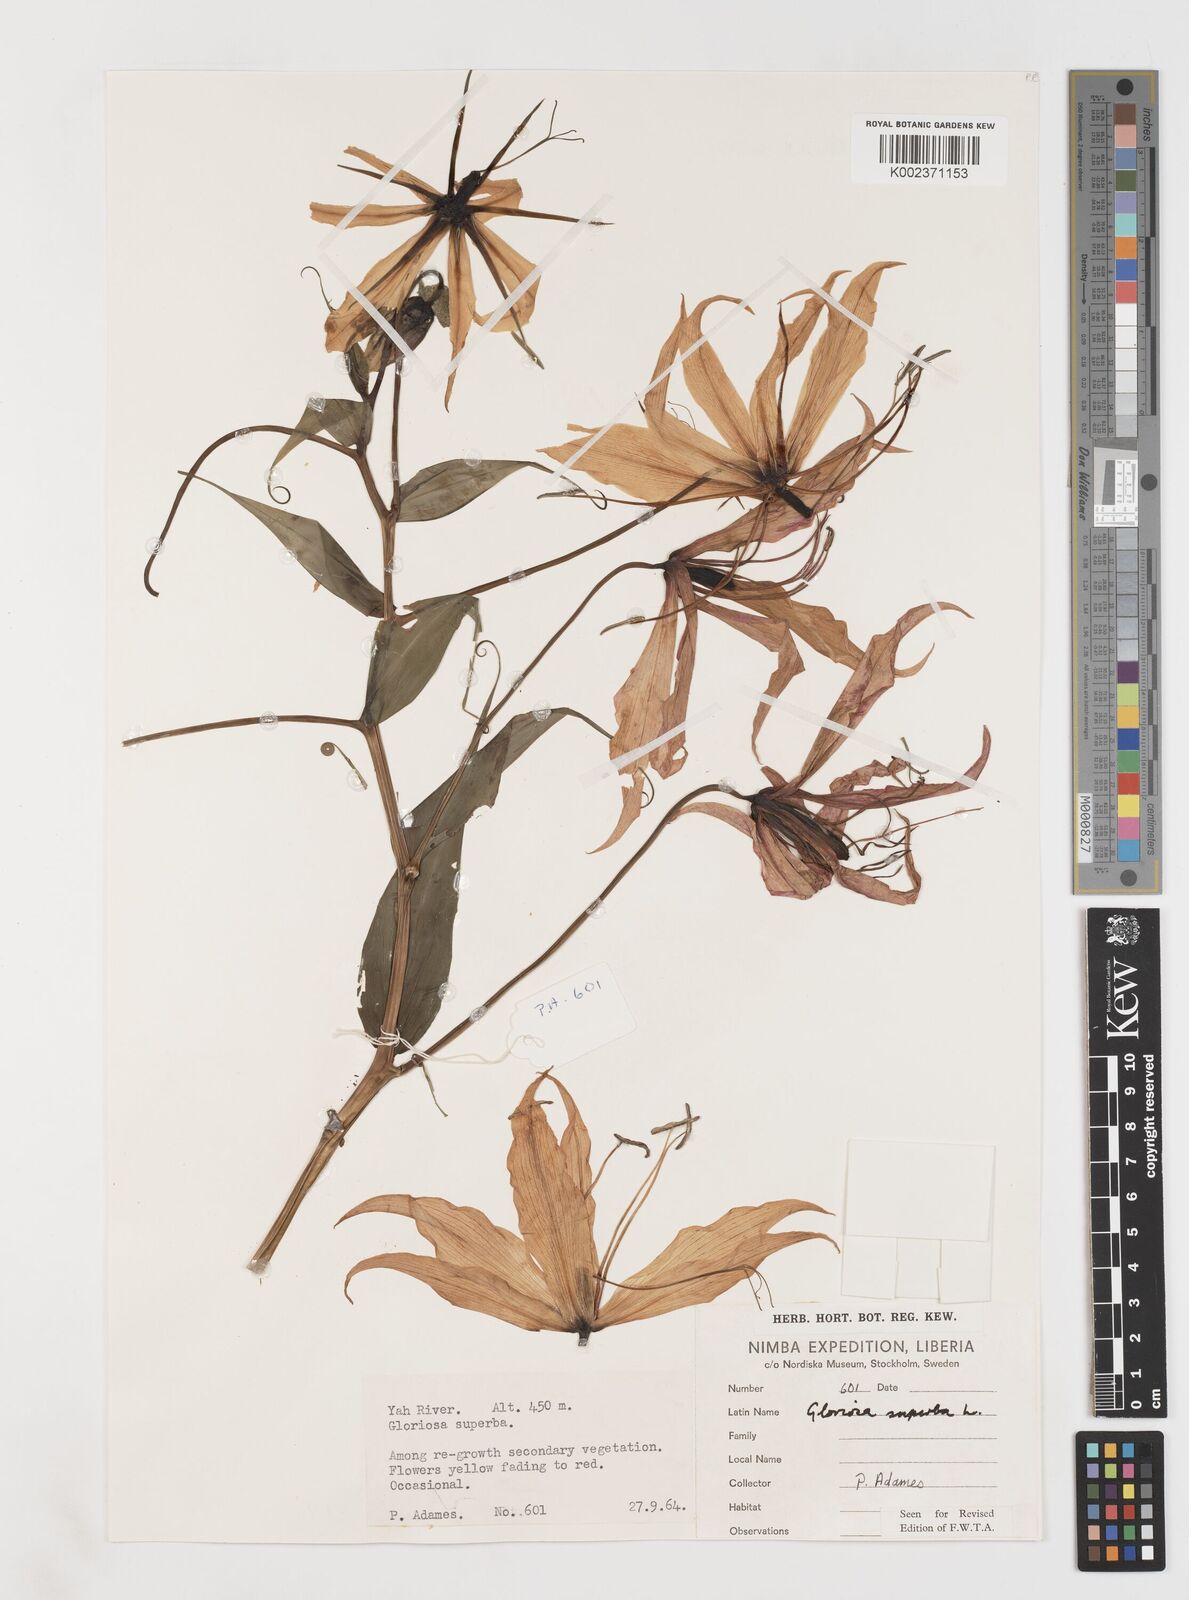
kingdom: Plantae
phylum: Tracheophyta
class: Liliopsida
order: Liliales
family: Colchicaceae
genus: Gloriosa
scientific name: Gloriosa simplex
